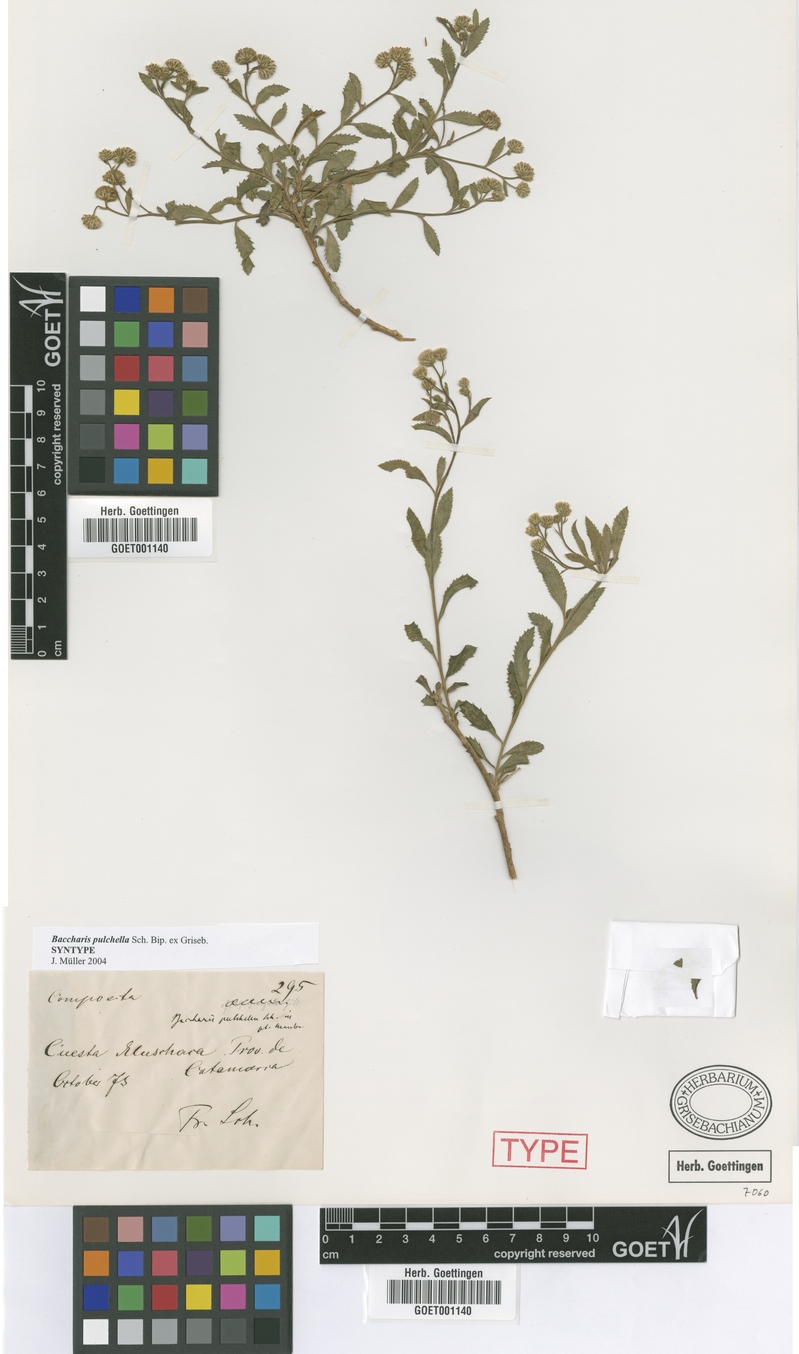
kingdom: Plantae
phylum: Tracheophyta
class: Magnoliopsida
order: Asterales
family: Asteraceae
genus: Baccharis
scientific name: Baccharis pulchella
